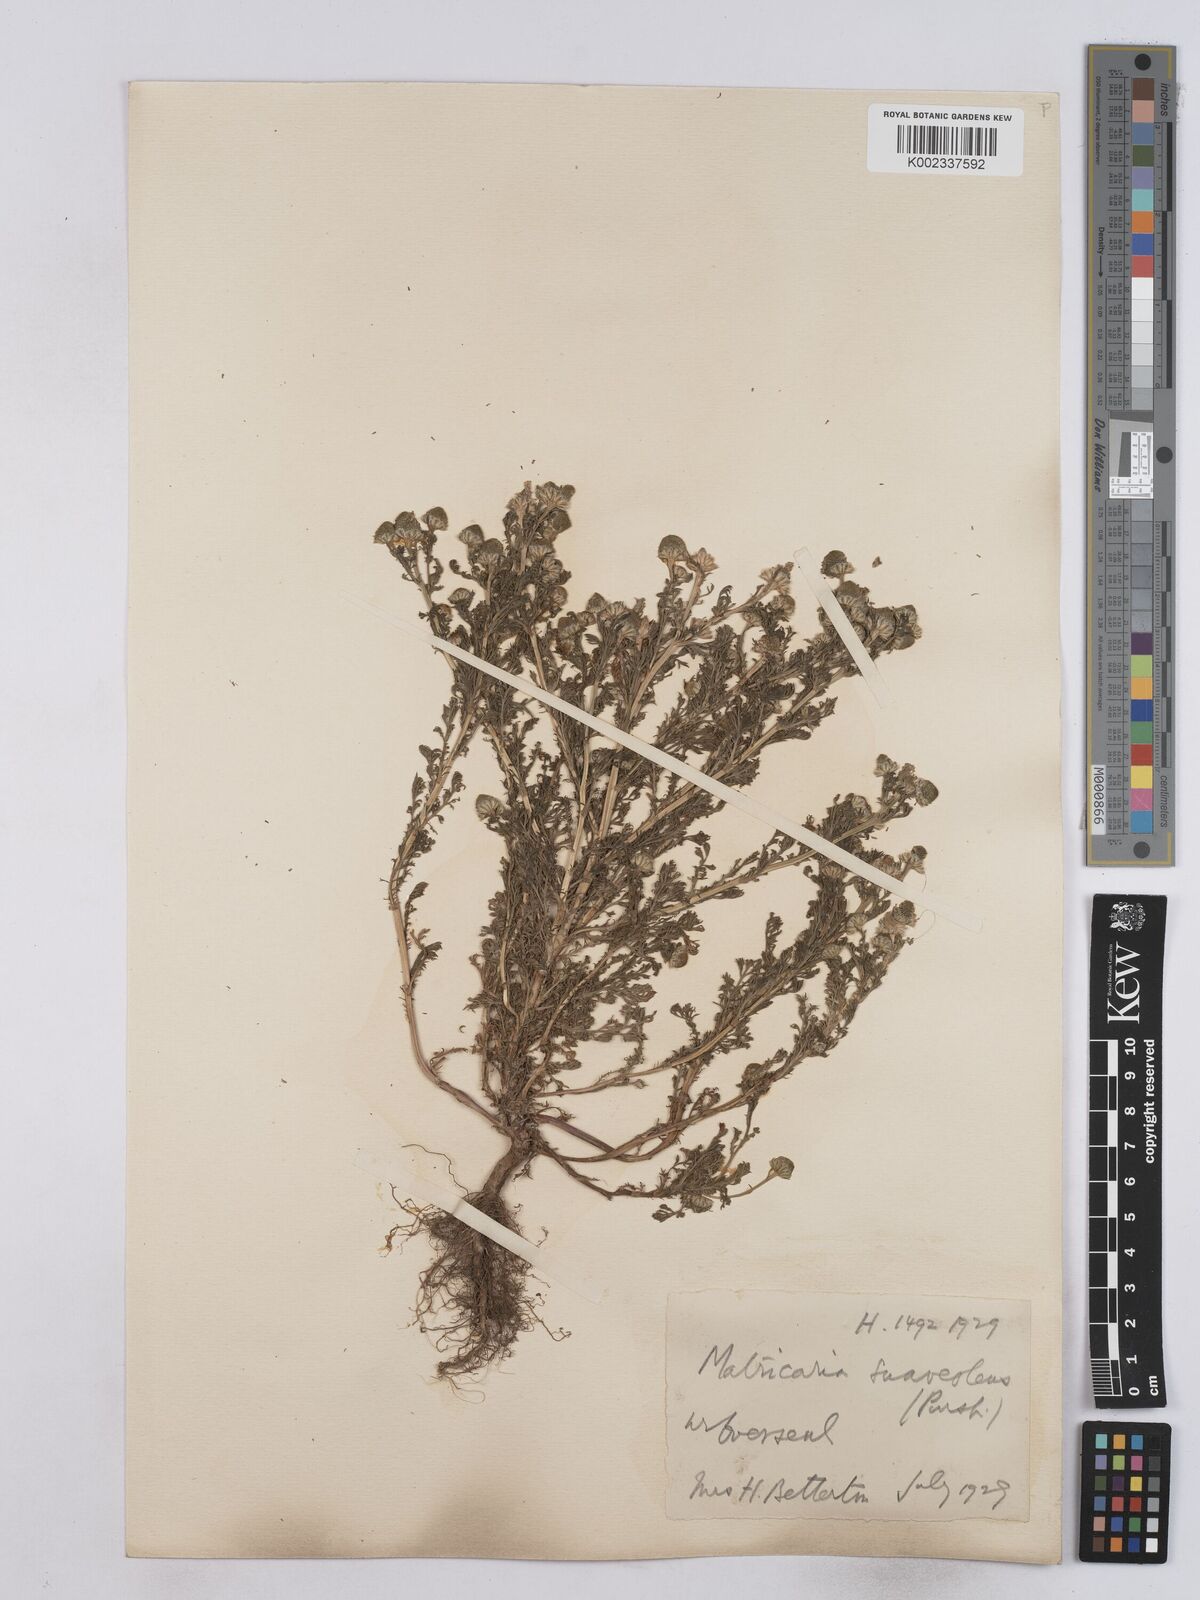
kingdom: Plantae
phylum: Tracheophyta
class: Magnoliopsida
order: Asterales
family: Asteraceae
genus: Matricaria
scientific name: Matricaria discoidea
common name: Disc mayweed
